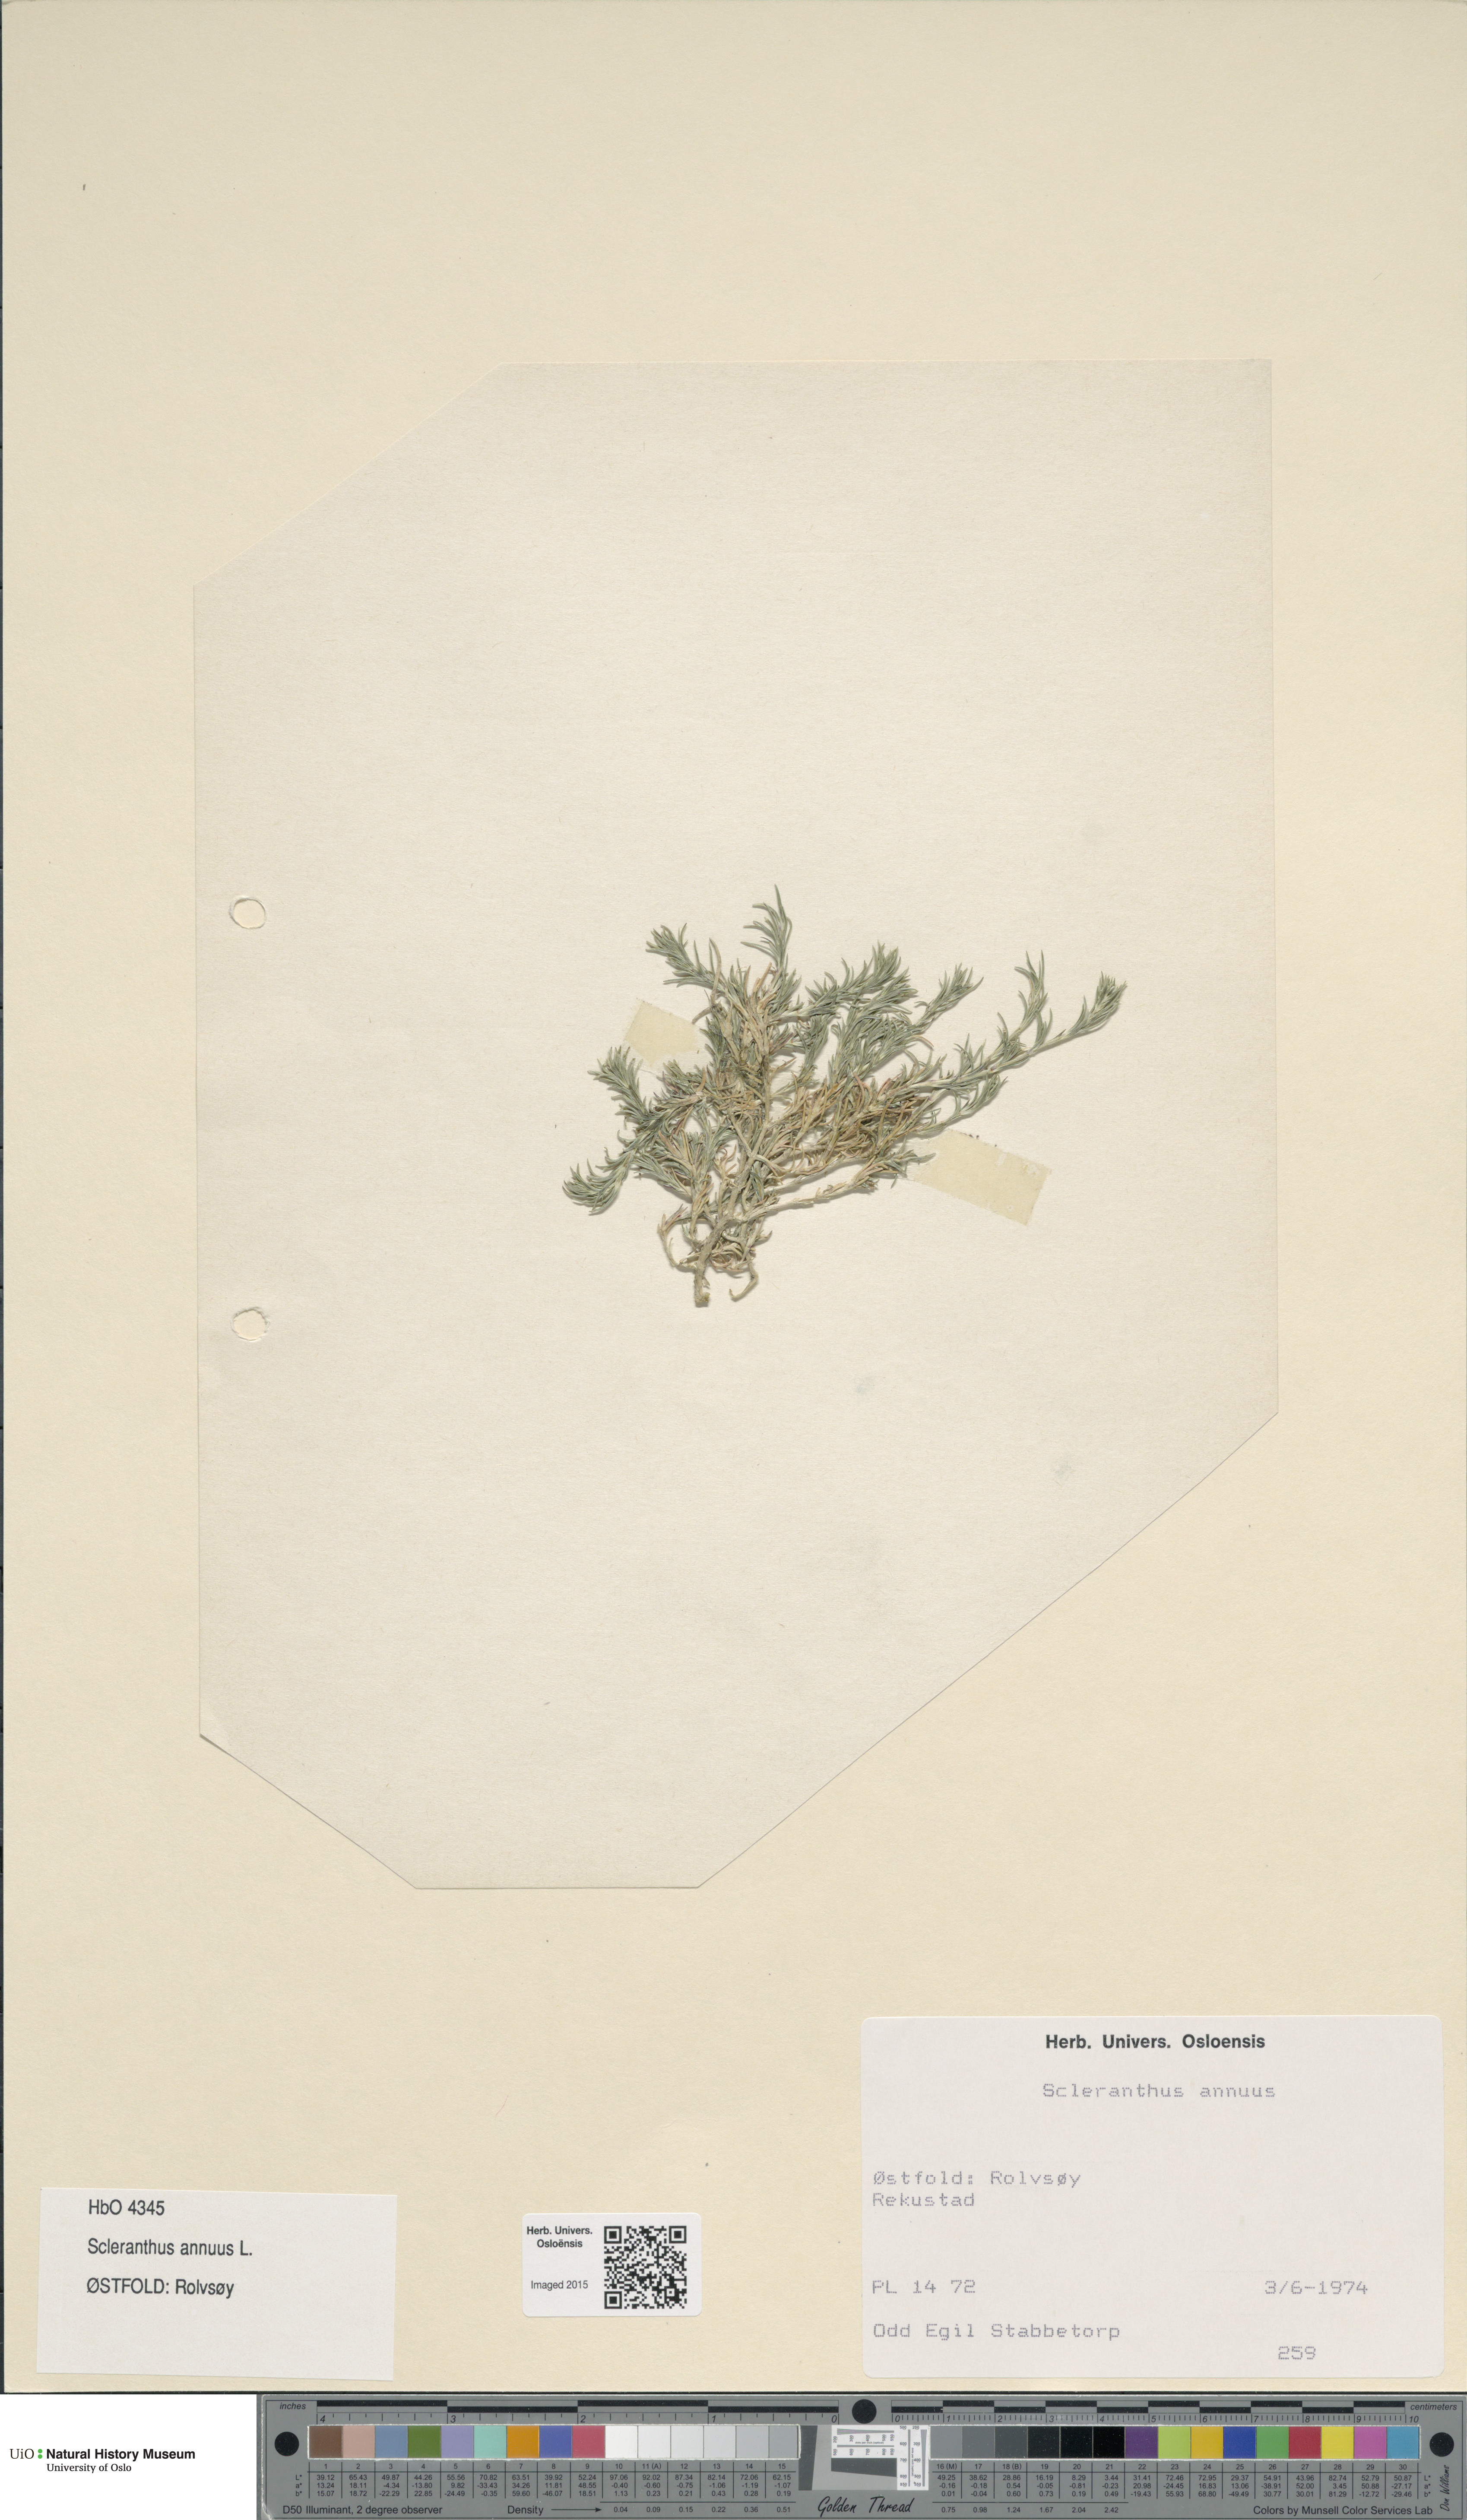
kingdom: Plantae
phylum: Tracheophyta
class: Magnoliopsida
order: Caryophyllales
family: Caryophyllaceae
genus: Scleranthus
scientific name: Scleranthus annuus
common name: Annual knawel
